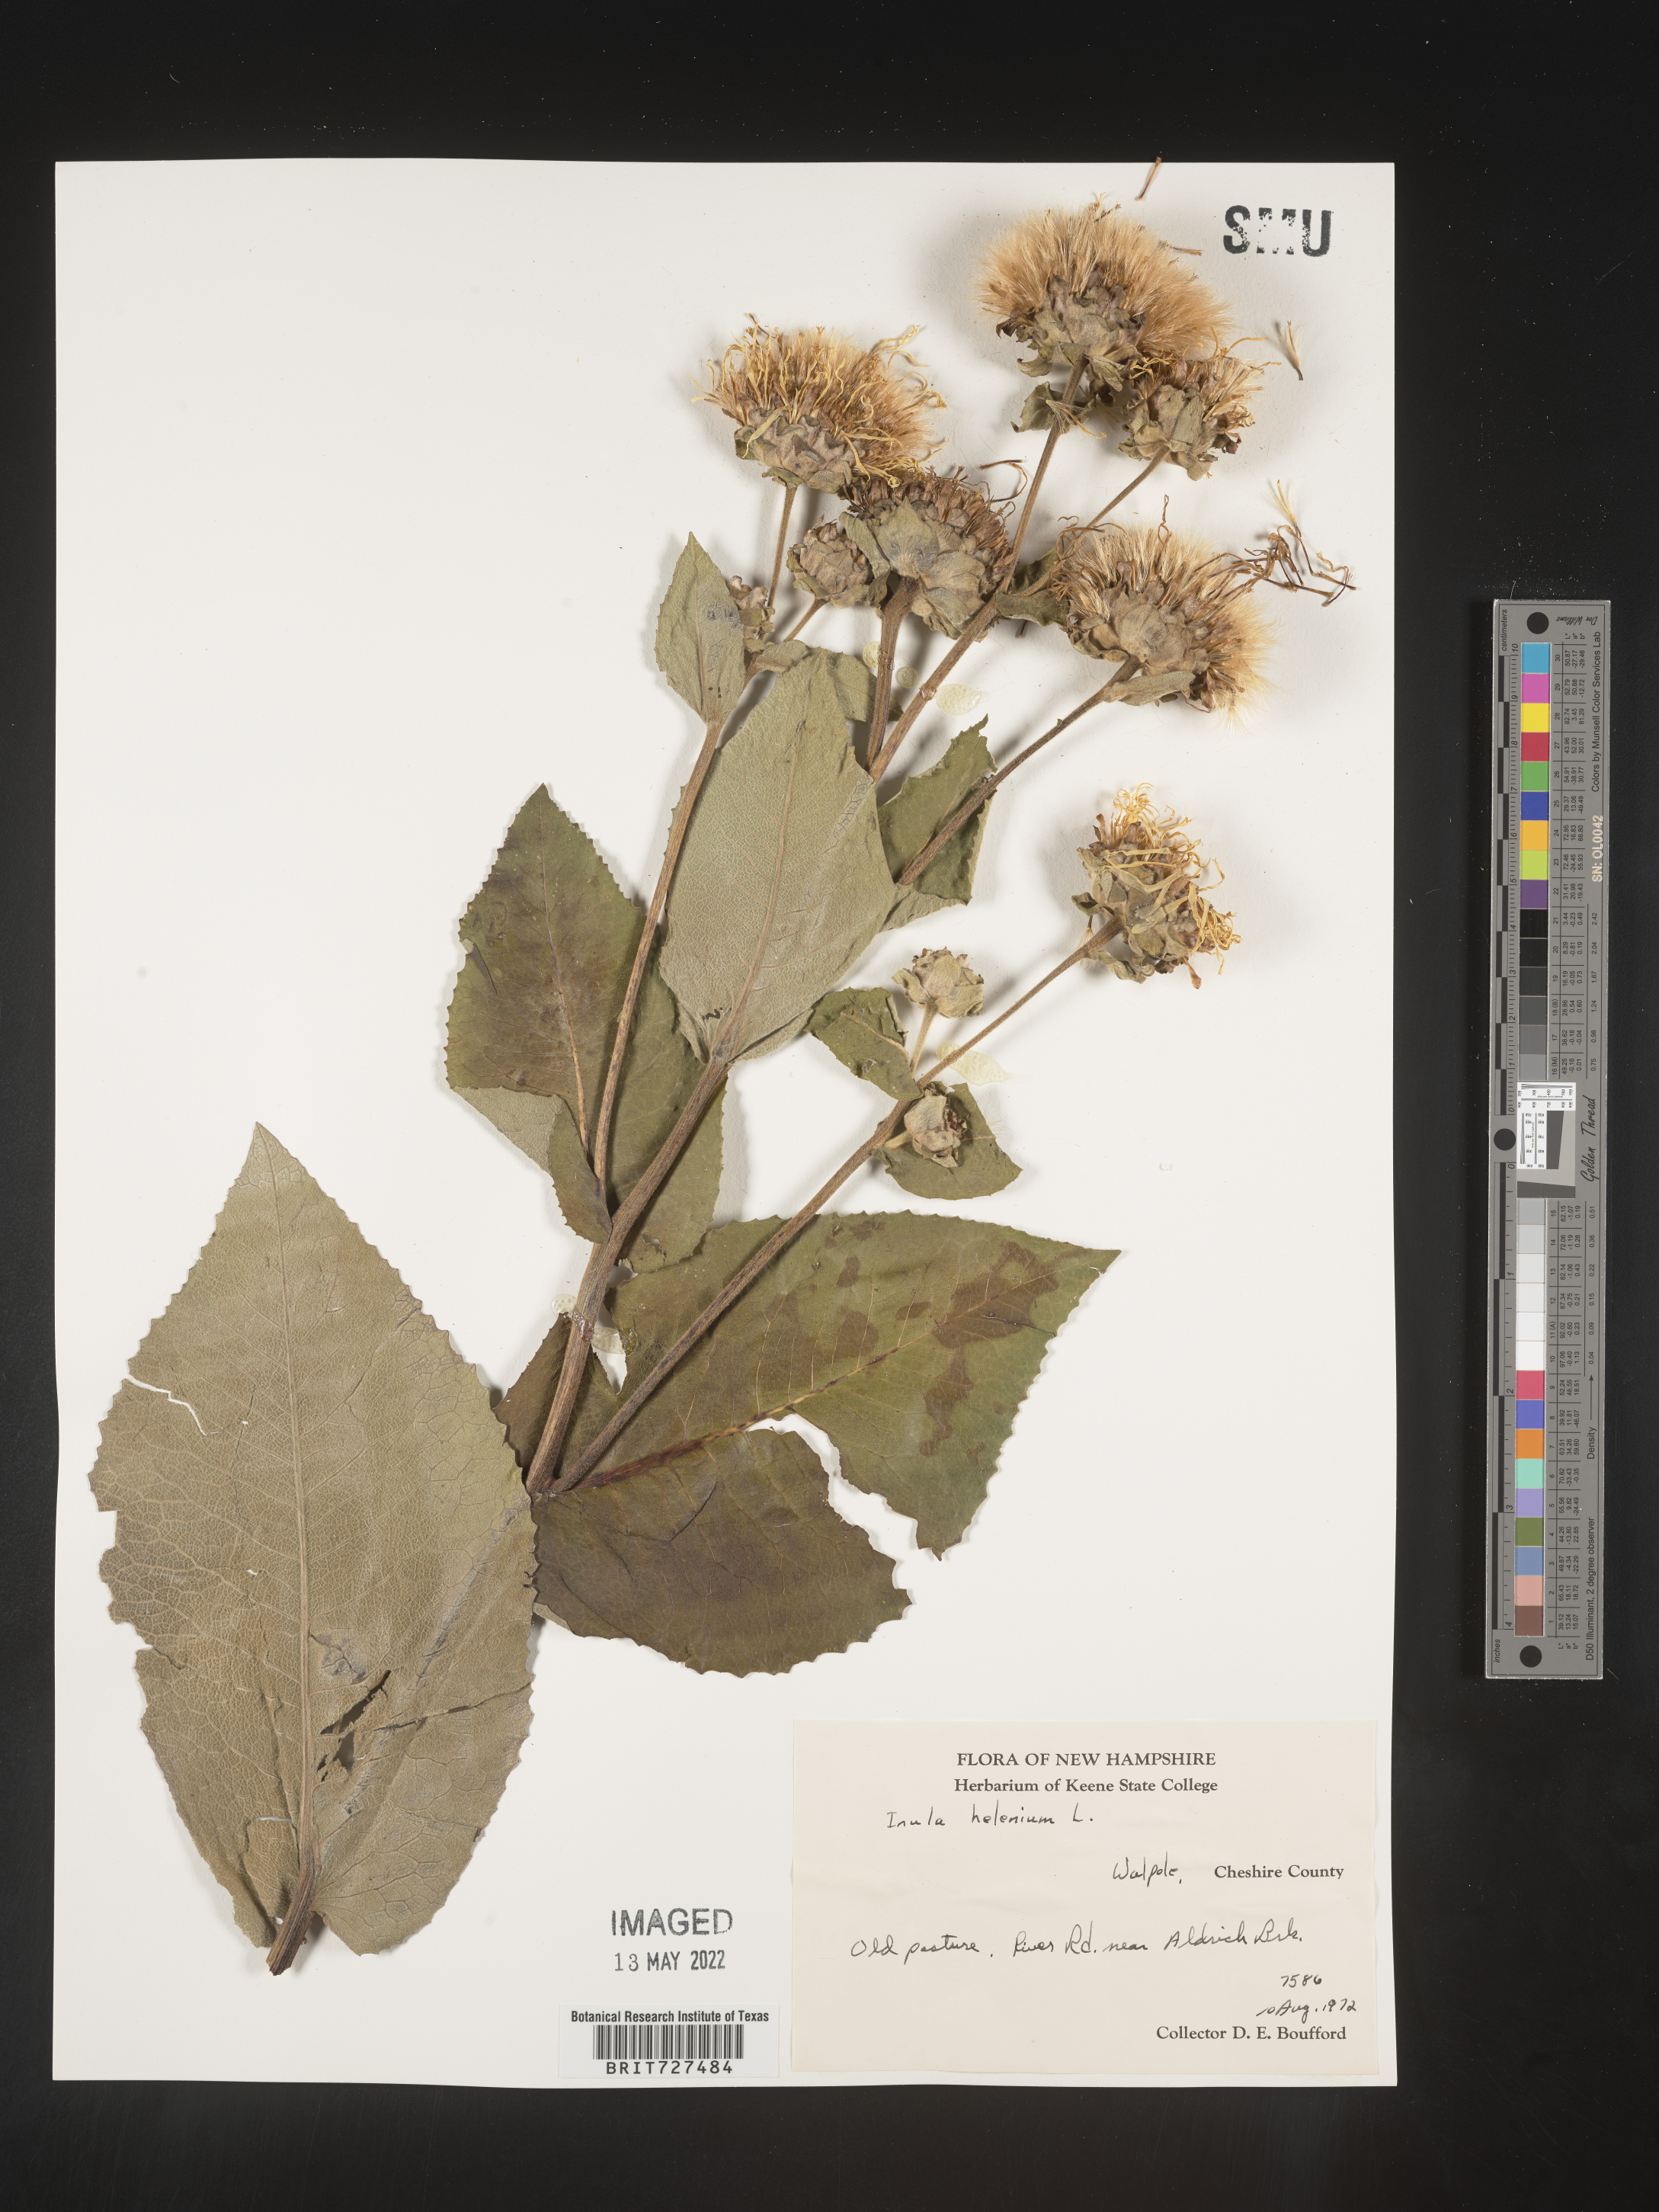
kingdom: Plantae
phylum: Tracheophyta
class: Magnoliopsida
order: Asterales
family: Asteraceae
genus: Inula
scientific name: Inula helenium
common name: Elecampane
